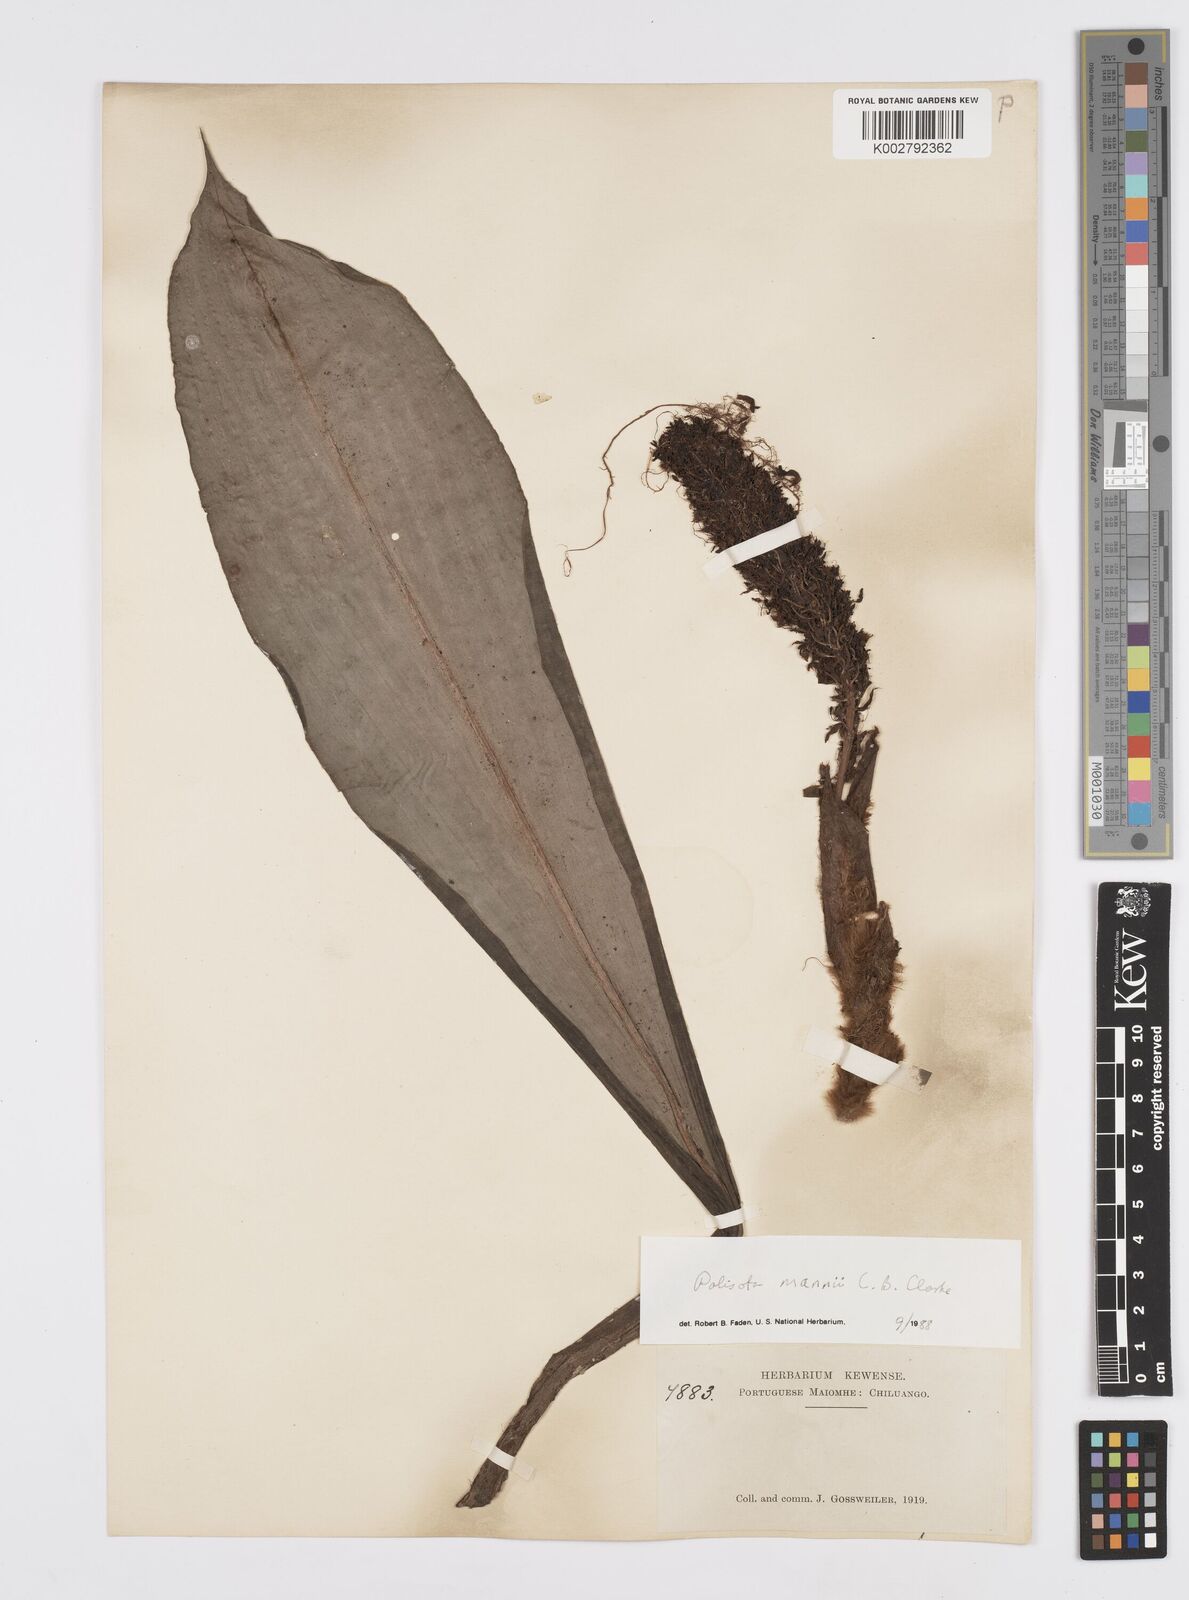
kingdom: Plantae
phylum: Tracheophyta
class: Liliopsida
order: Commelinales
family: Commelinaceae
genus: Palisota
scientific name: Palisota mannii
